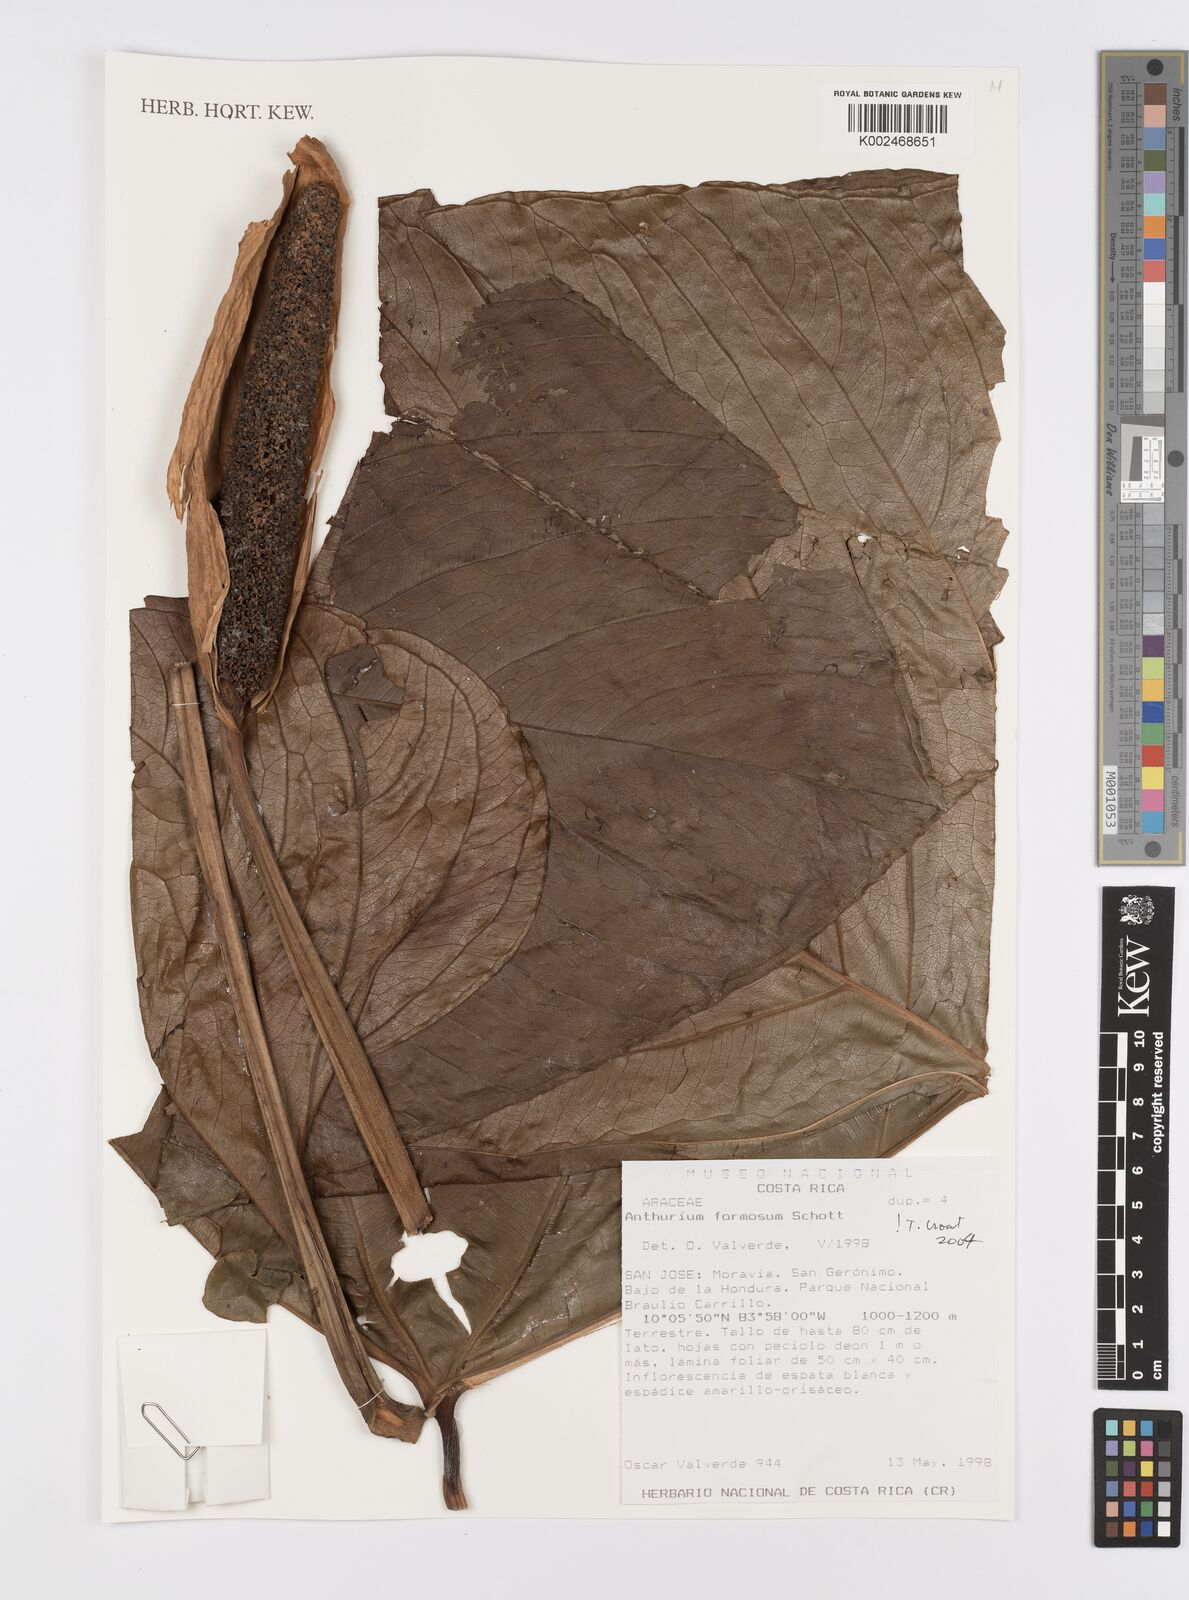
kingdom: Plantae
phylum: Tracheophyta
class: Liliopsida
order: Alismatales
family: Araceae
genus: Anthurium
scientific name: Anthurium formosum
